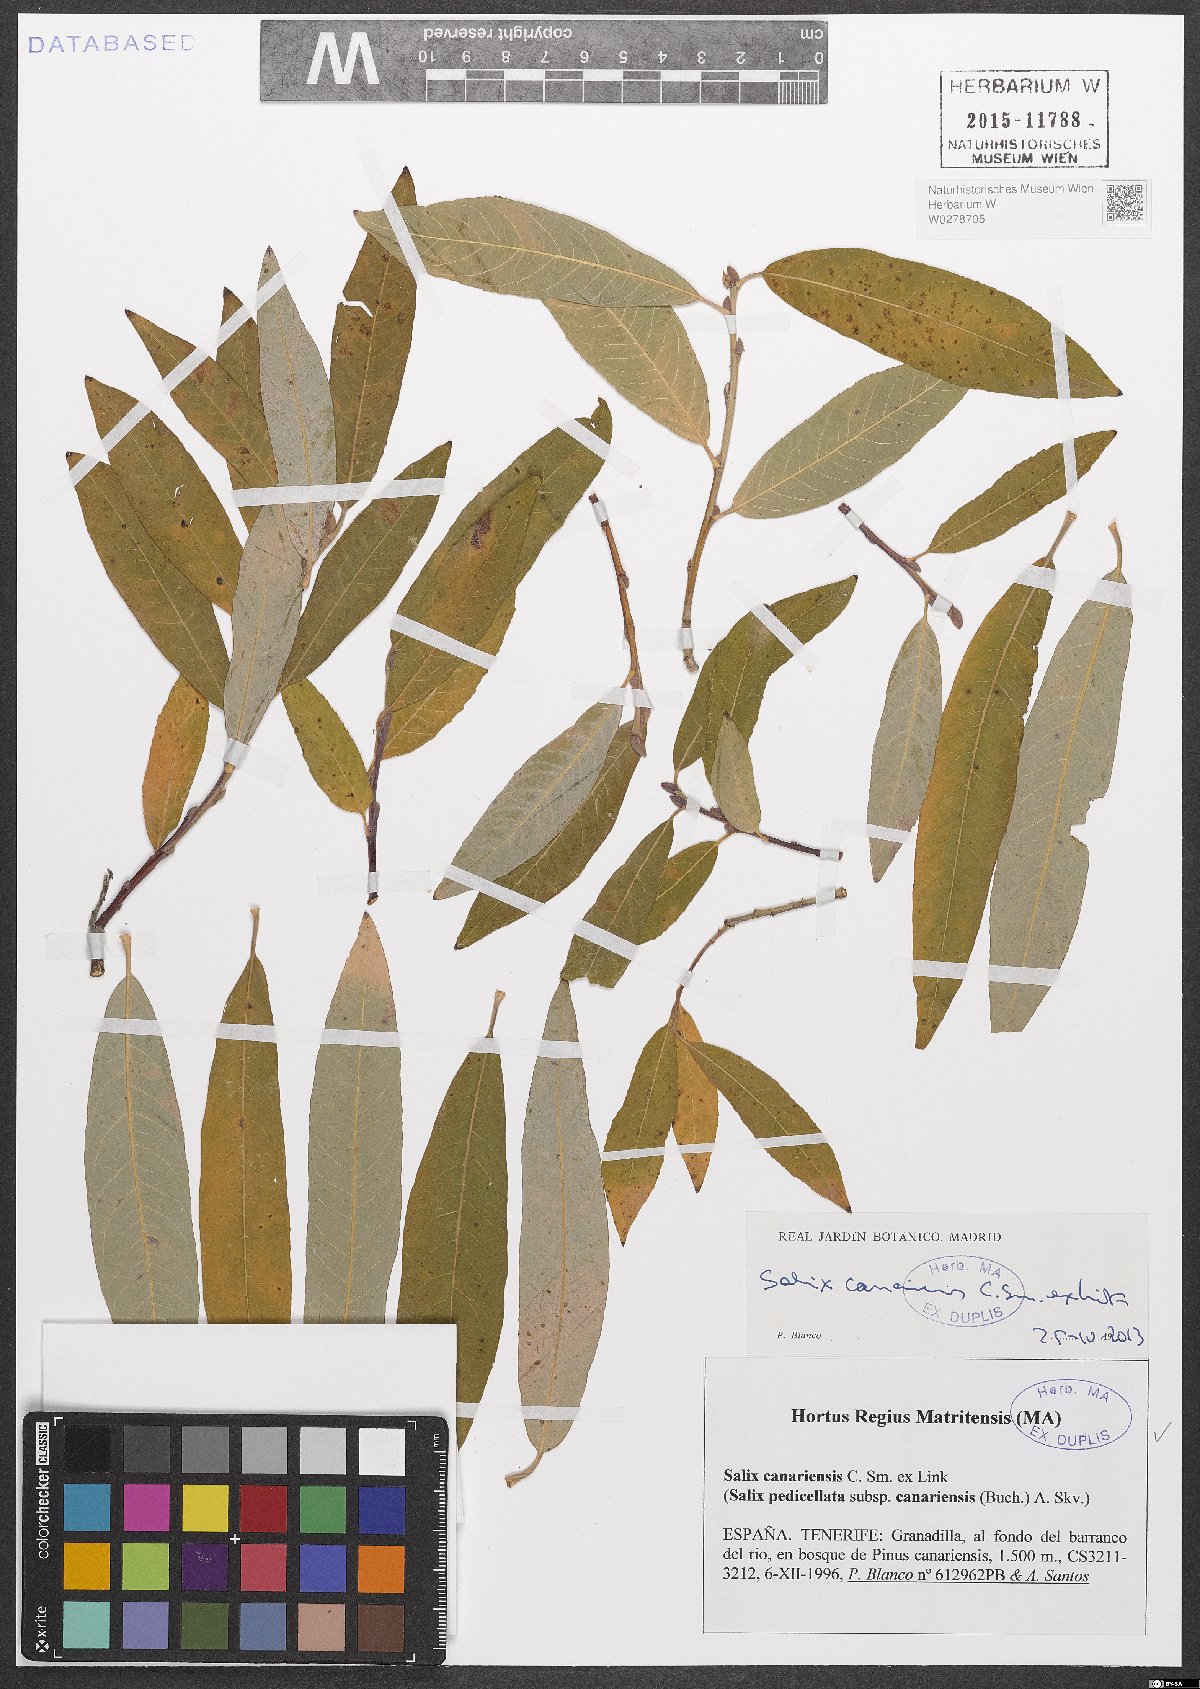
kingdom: Plantae
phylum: Tracheophyta
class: Magnoliopsida
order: Malpighiales
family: Salicaceae
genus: Salix
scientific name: Salix canariensis
